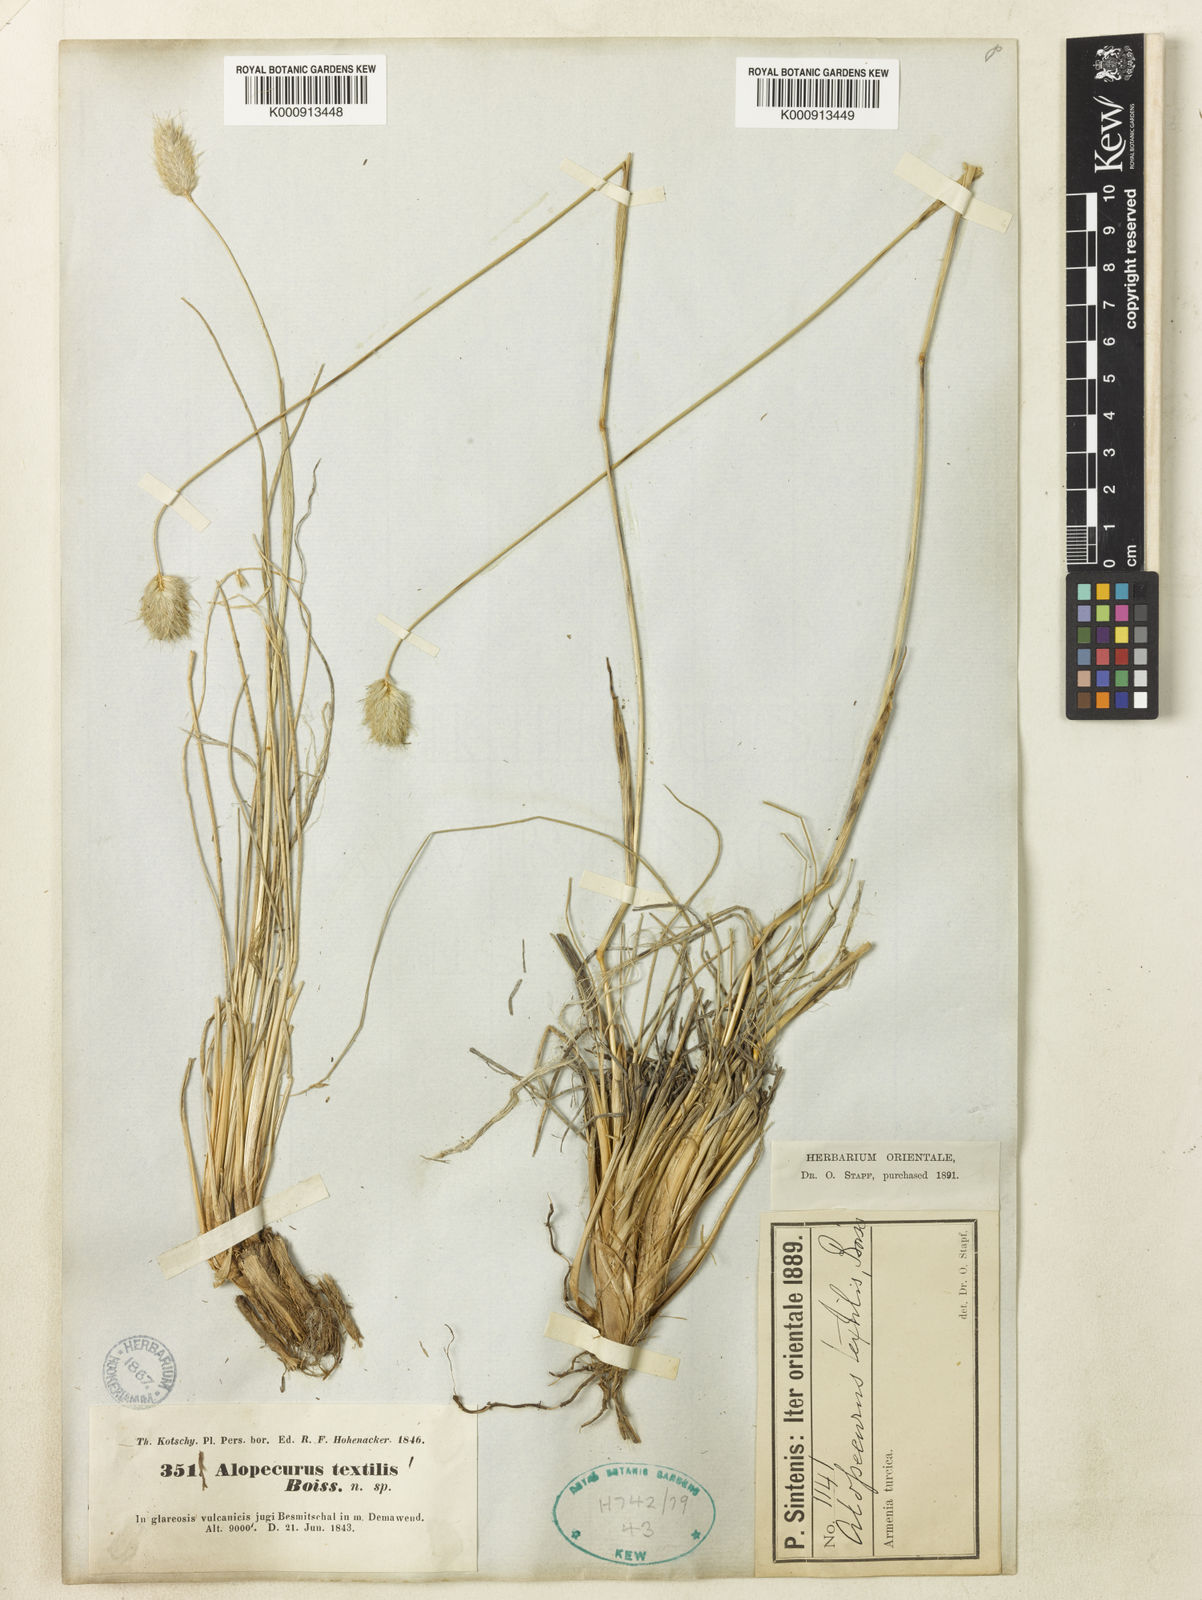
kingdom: Plantae
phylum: Tracheophyta
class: Liliopsida
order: Poales
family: Poaceae
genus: Alopecurus
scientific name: Alopecurus textilis
